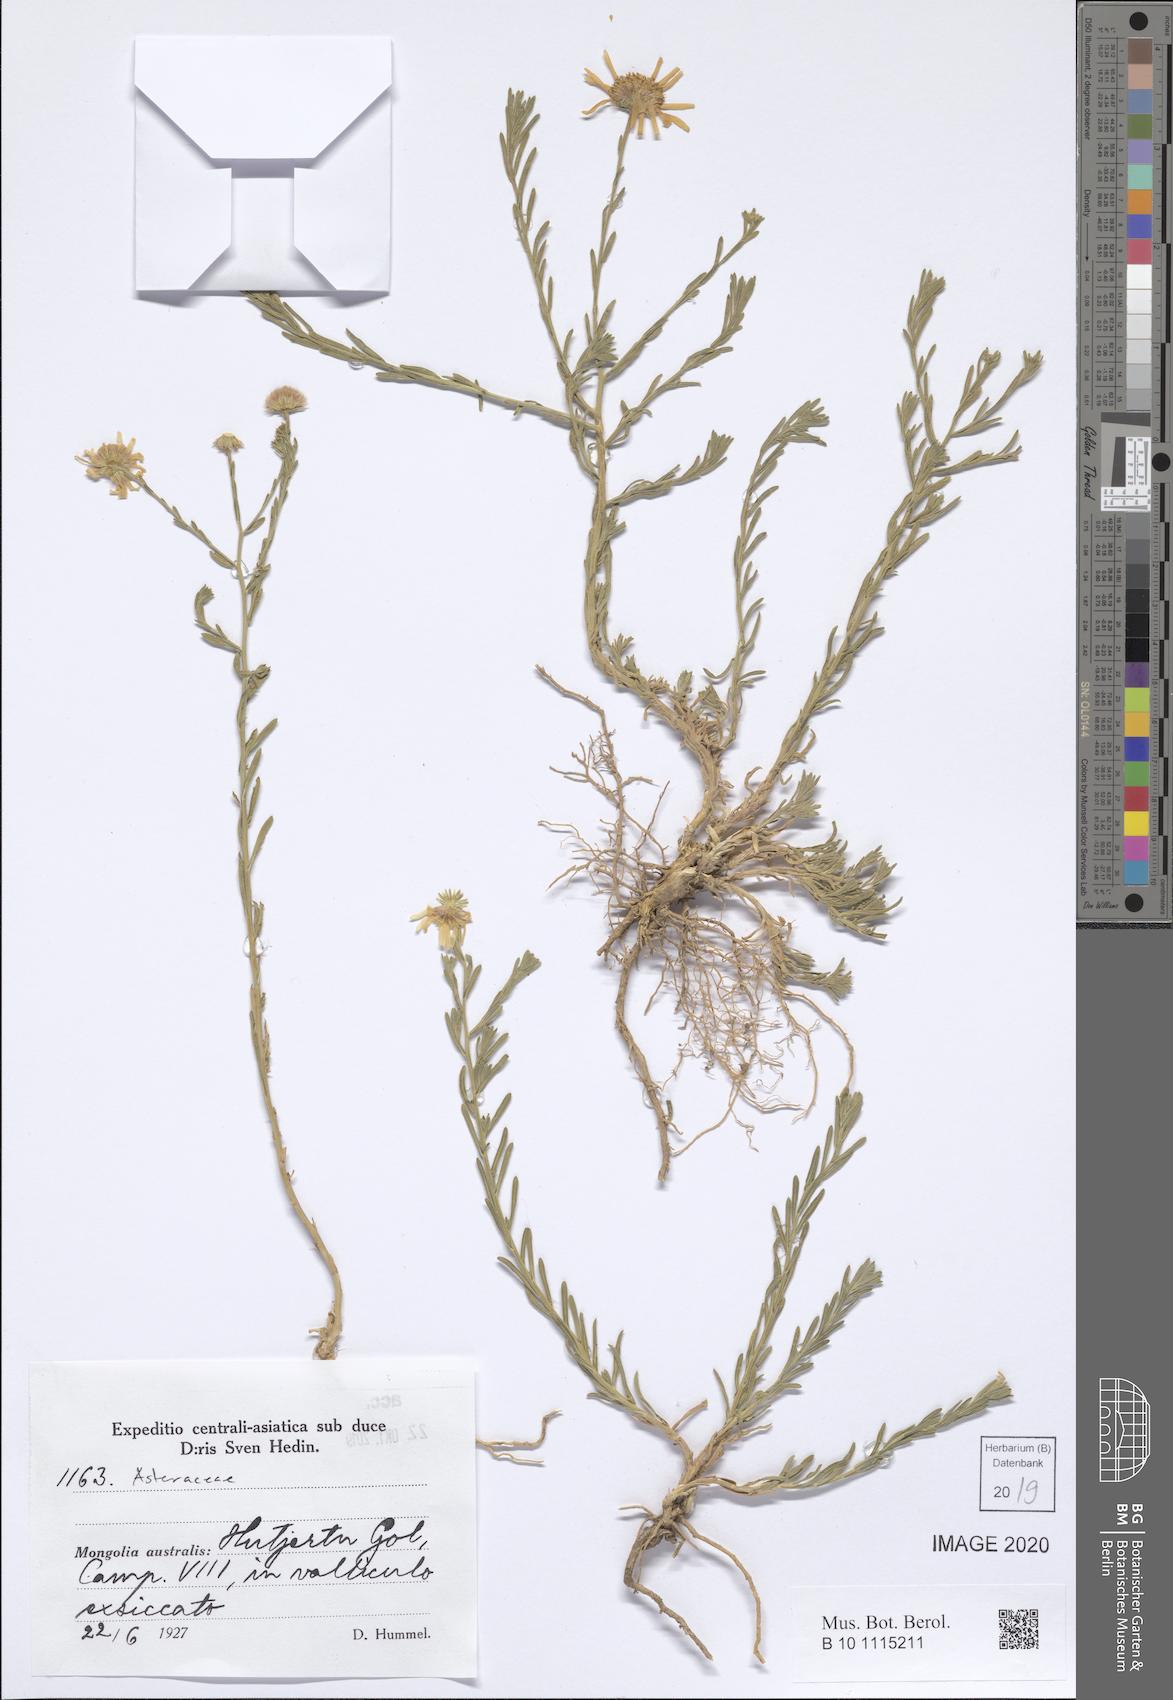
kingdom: Plantae
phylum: Tracheophyta
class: Magnoliopsida
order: Asterales
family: Asteraceae
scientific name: Asteraceae
